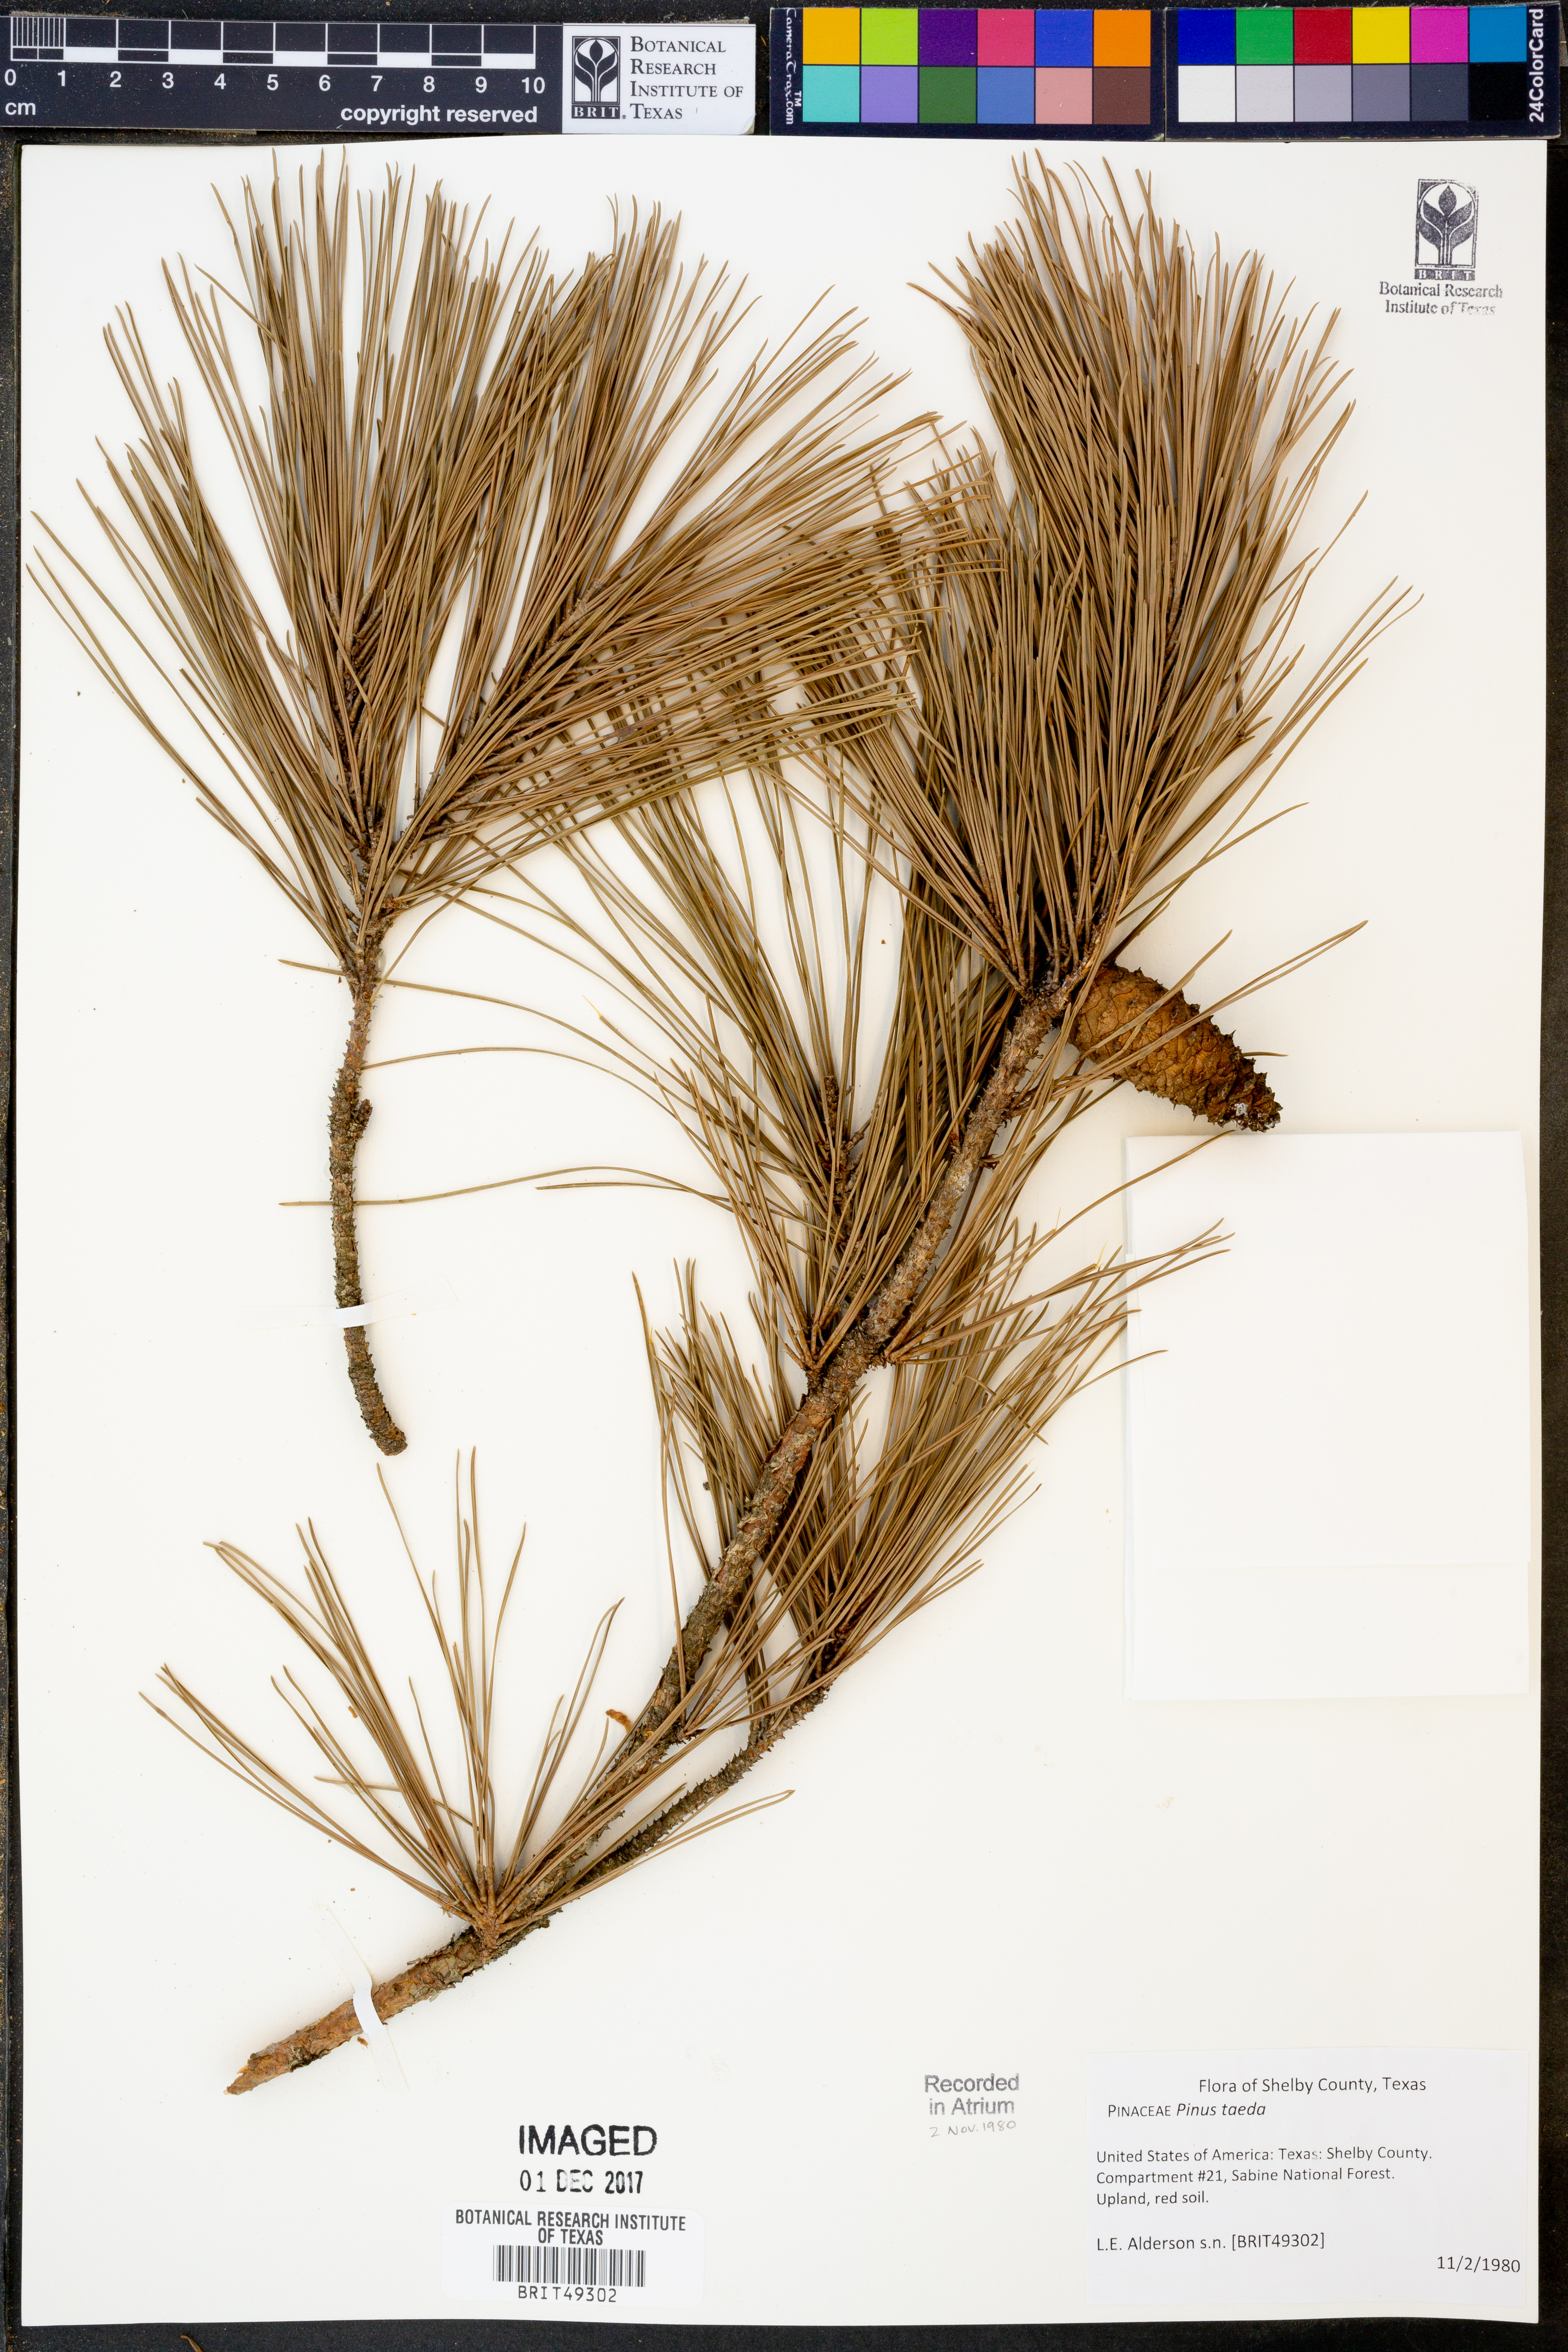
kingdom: Plantae
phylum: Tracheophyta
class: Pinopsida
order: Pinales
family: Pinaceae
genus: Pinus
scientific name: Pinus taeda
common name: Loblolly pine
